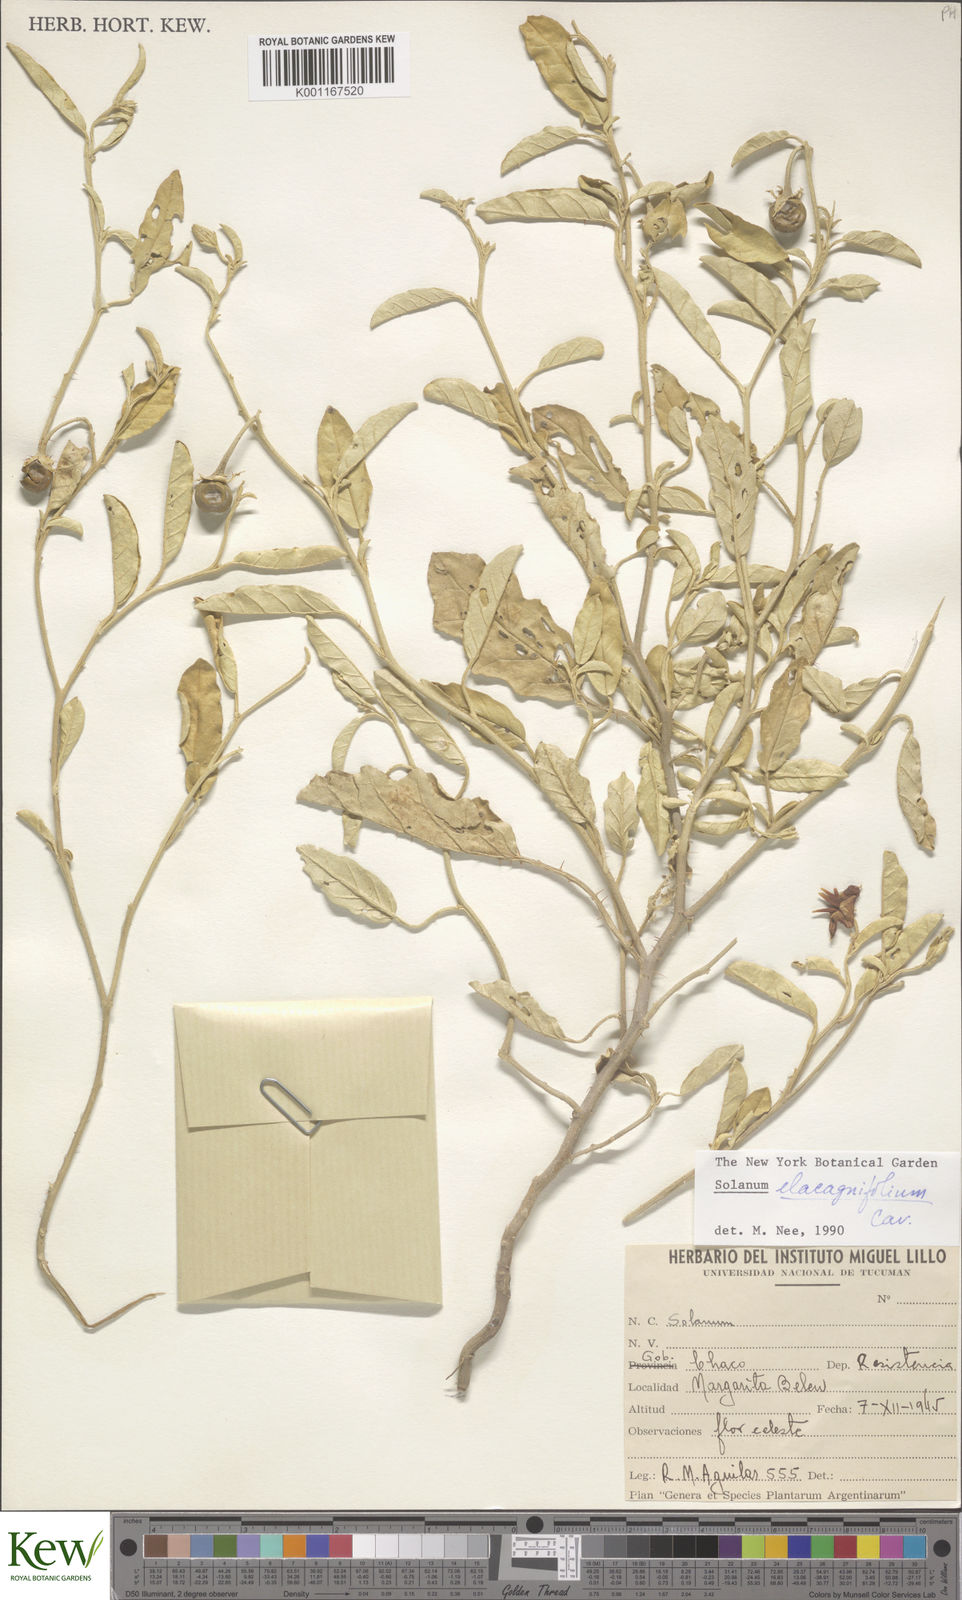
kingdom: Plantae
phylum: Tracheophyta
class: Magnoliopsida
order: Solanales
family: Solanaceae
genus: Solanum
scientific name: Solanum elaeagnifolium
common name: Silverleaf nightshade
